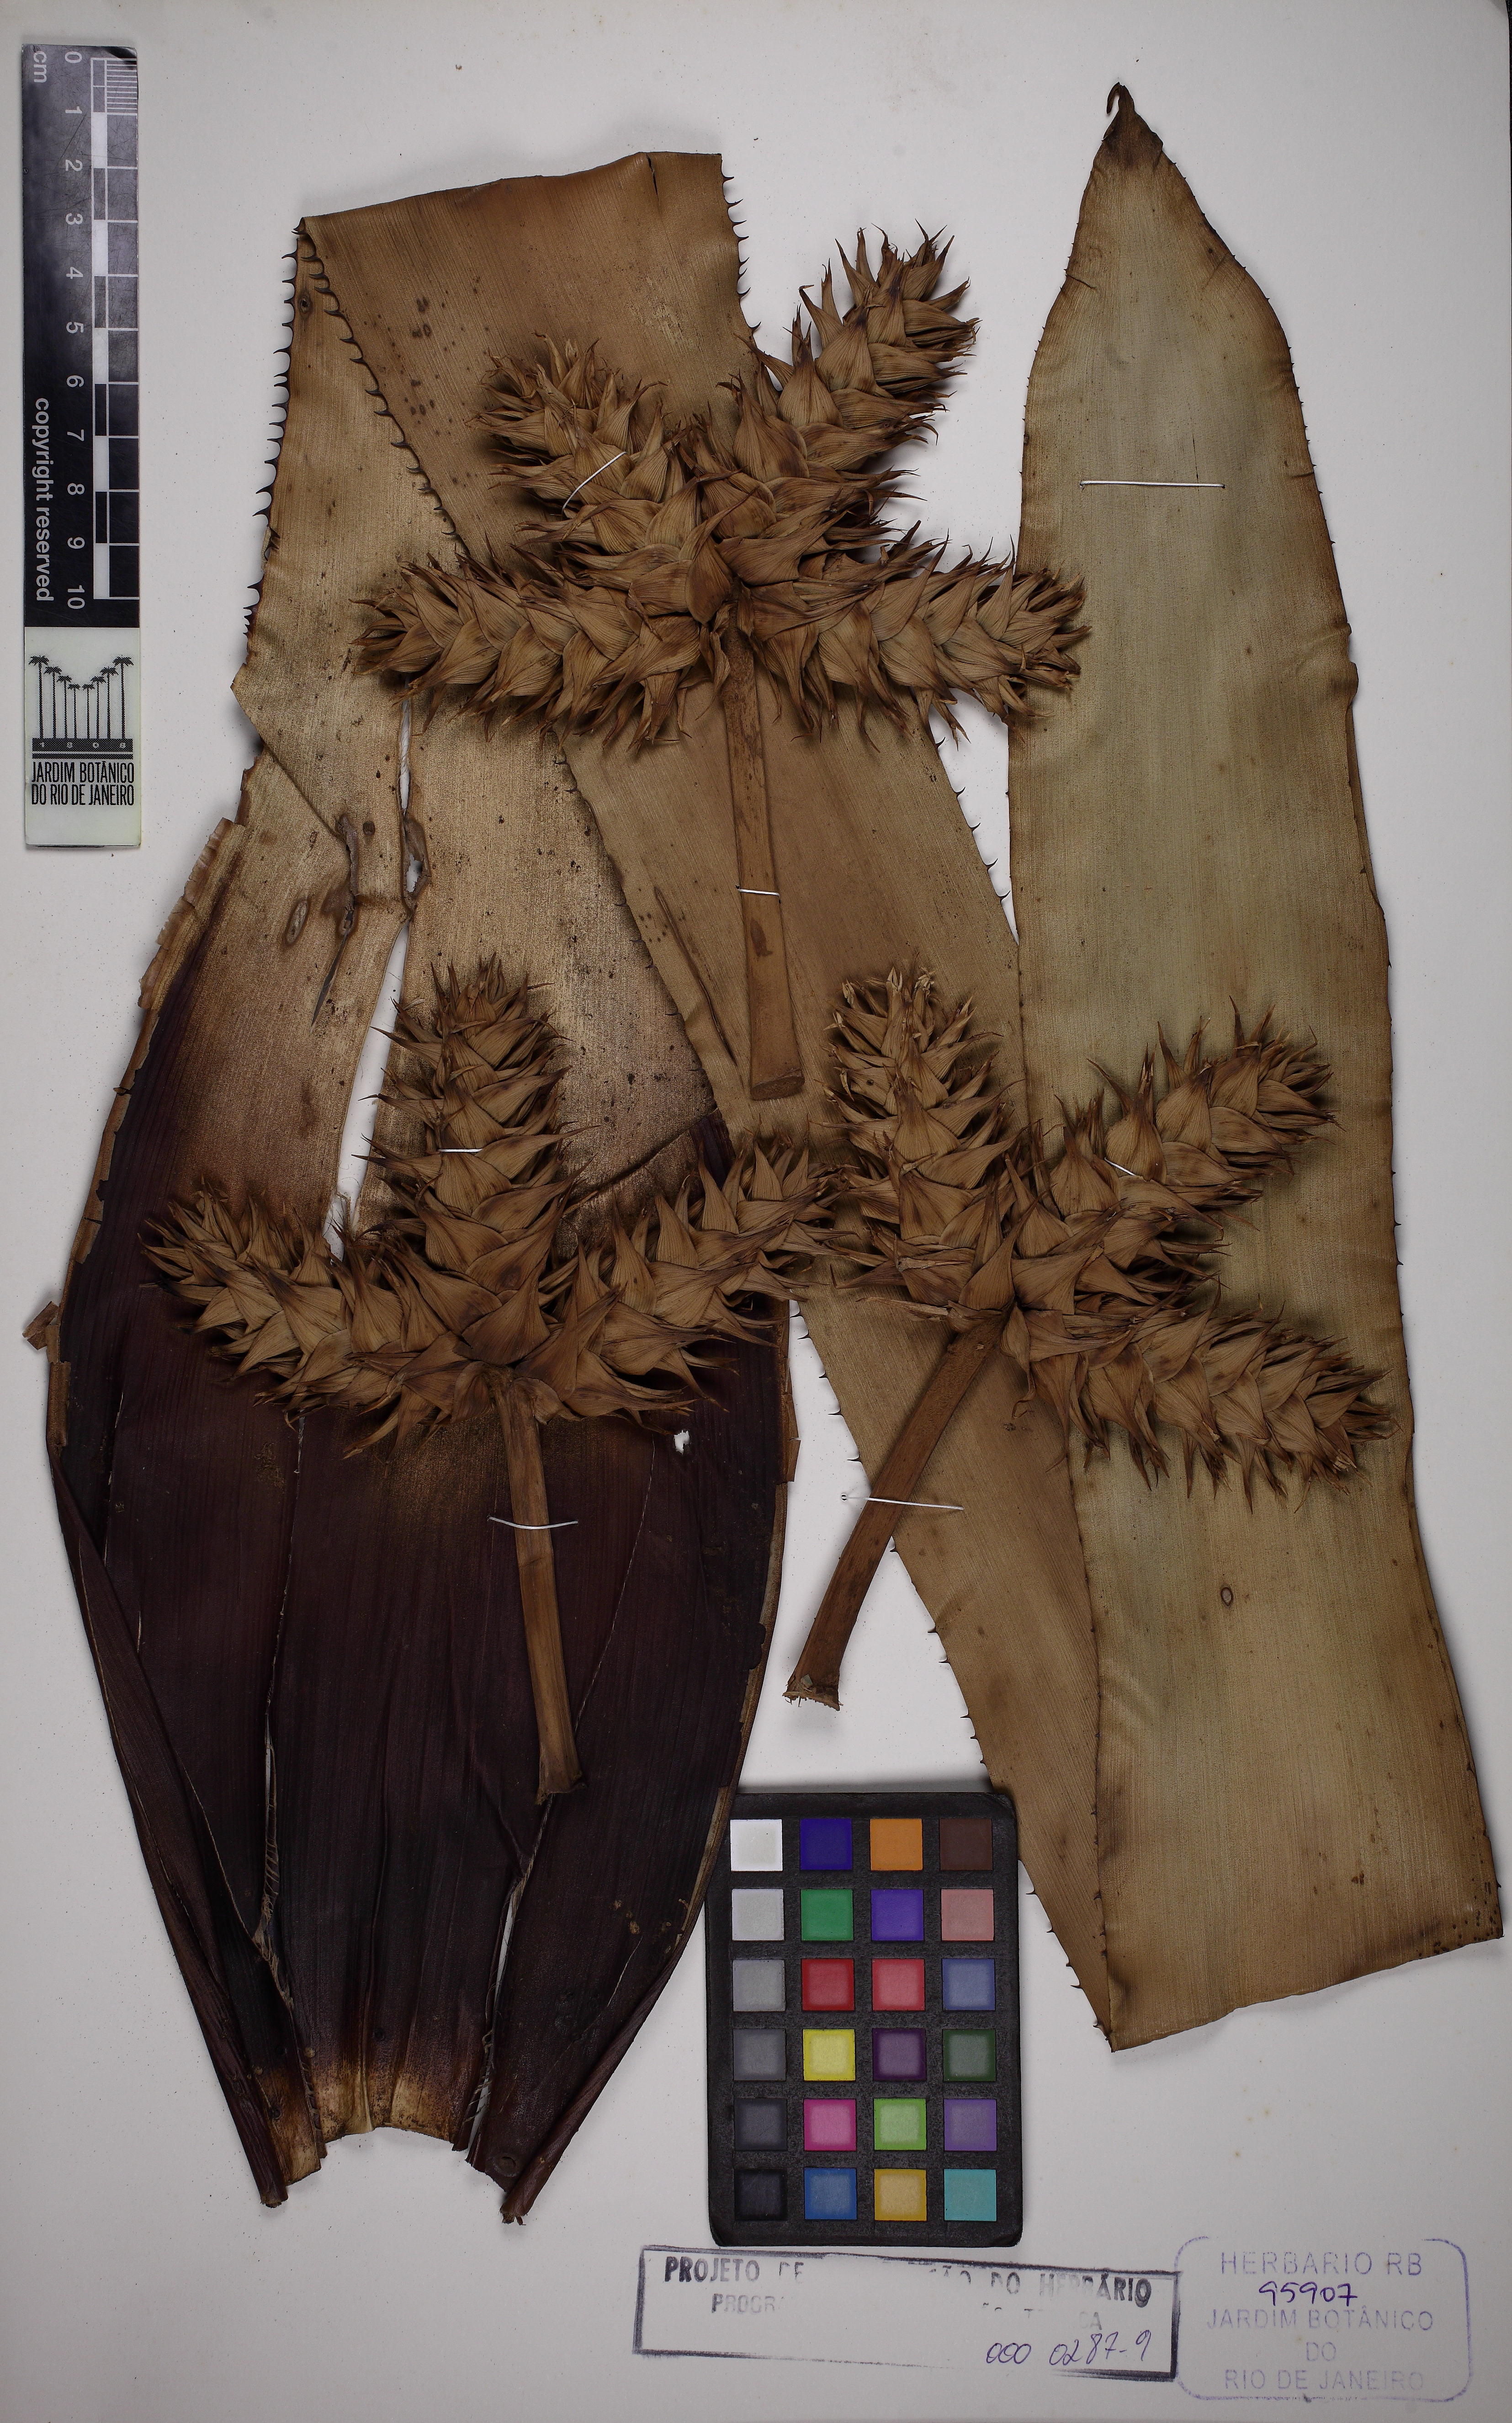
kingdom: Plantae
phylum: Tracheophyta
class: Liliopsida
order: Poales
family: Bromeliaceae
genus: Hohenbergia
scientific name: Hohenbergia stellata
